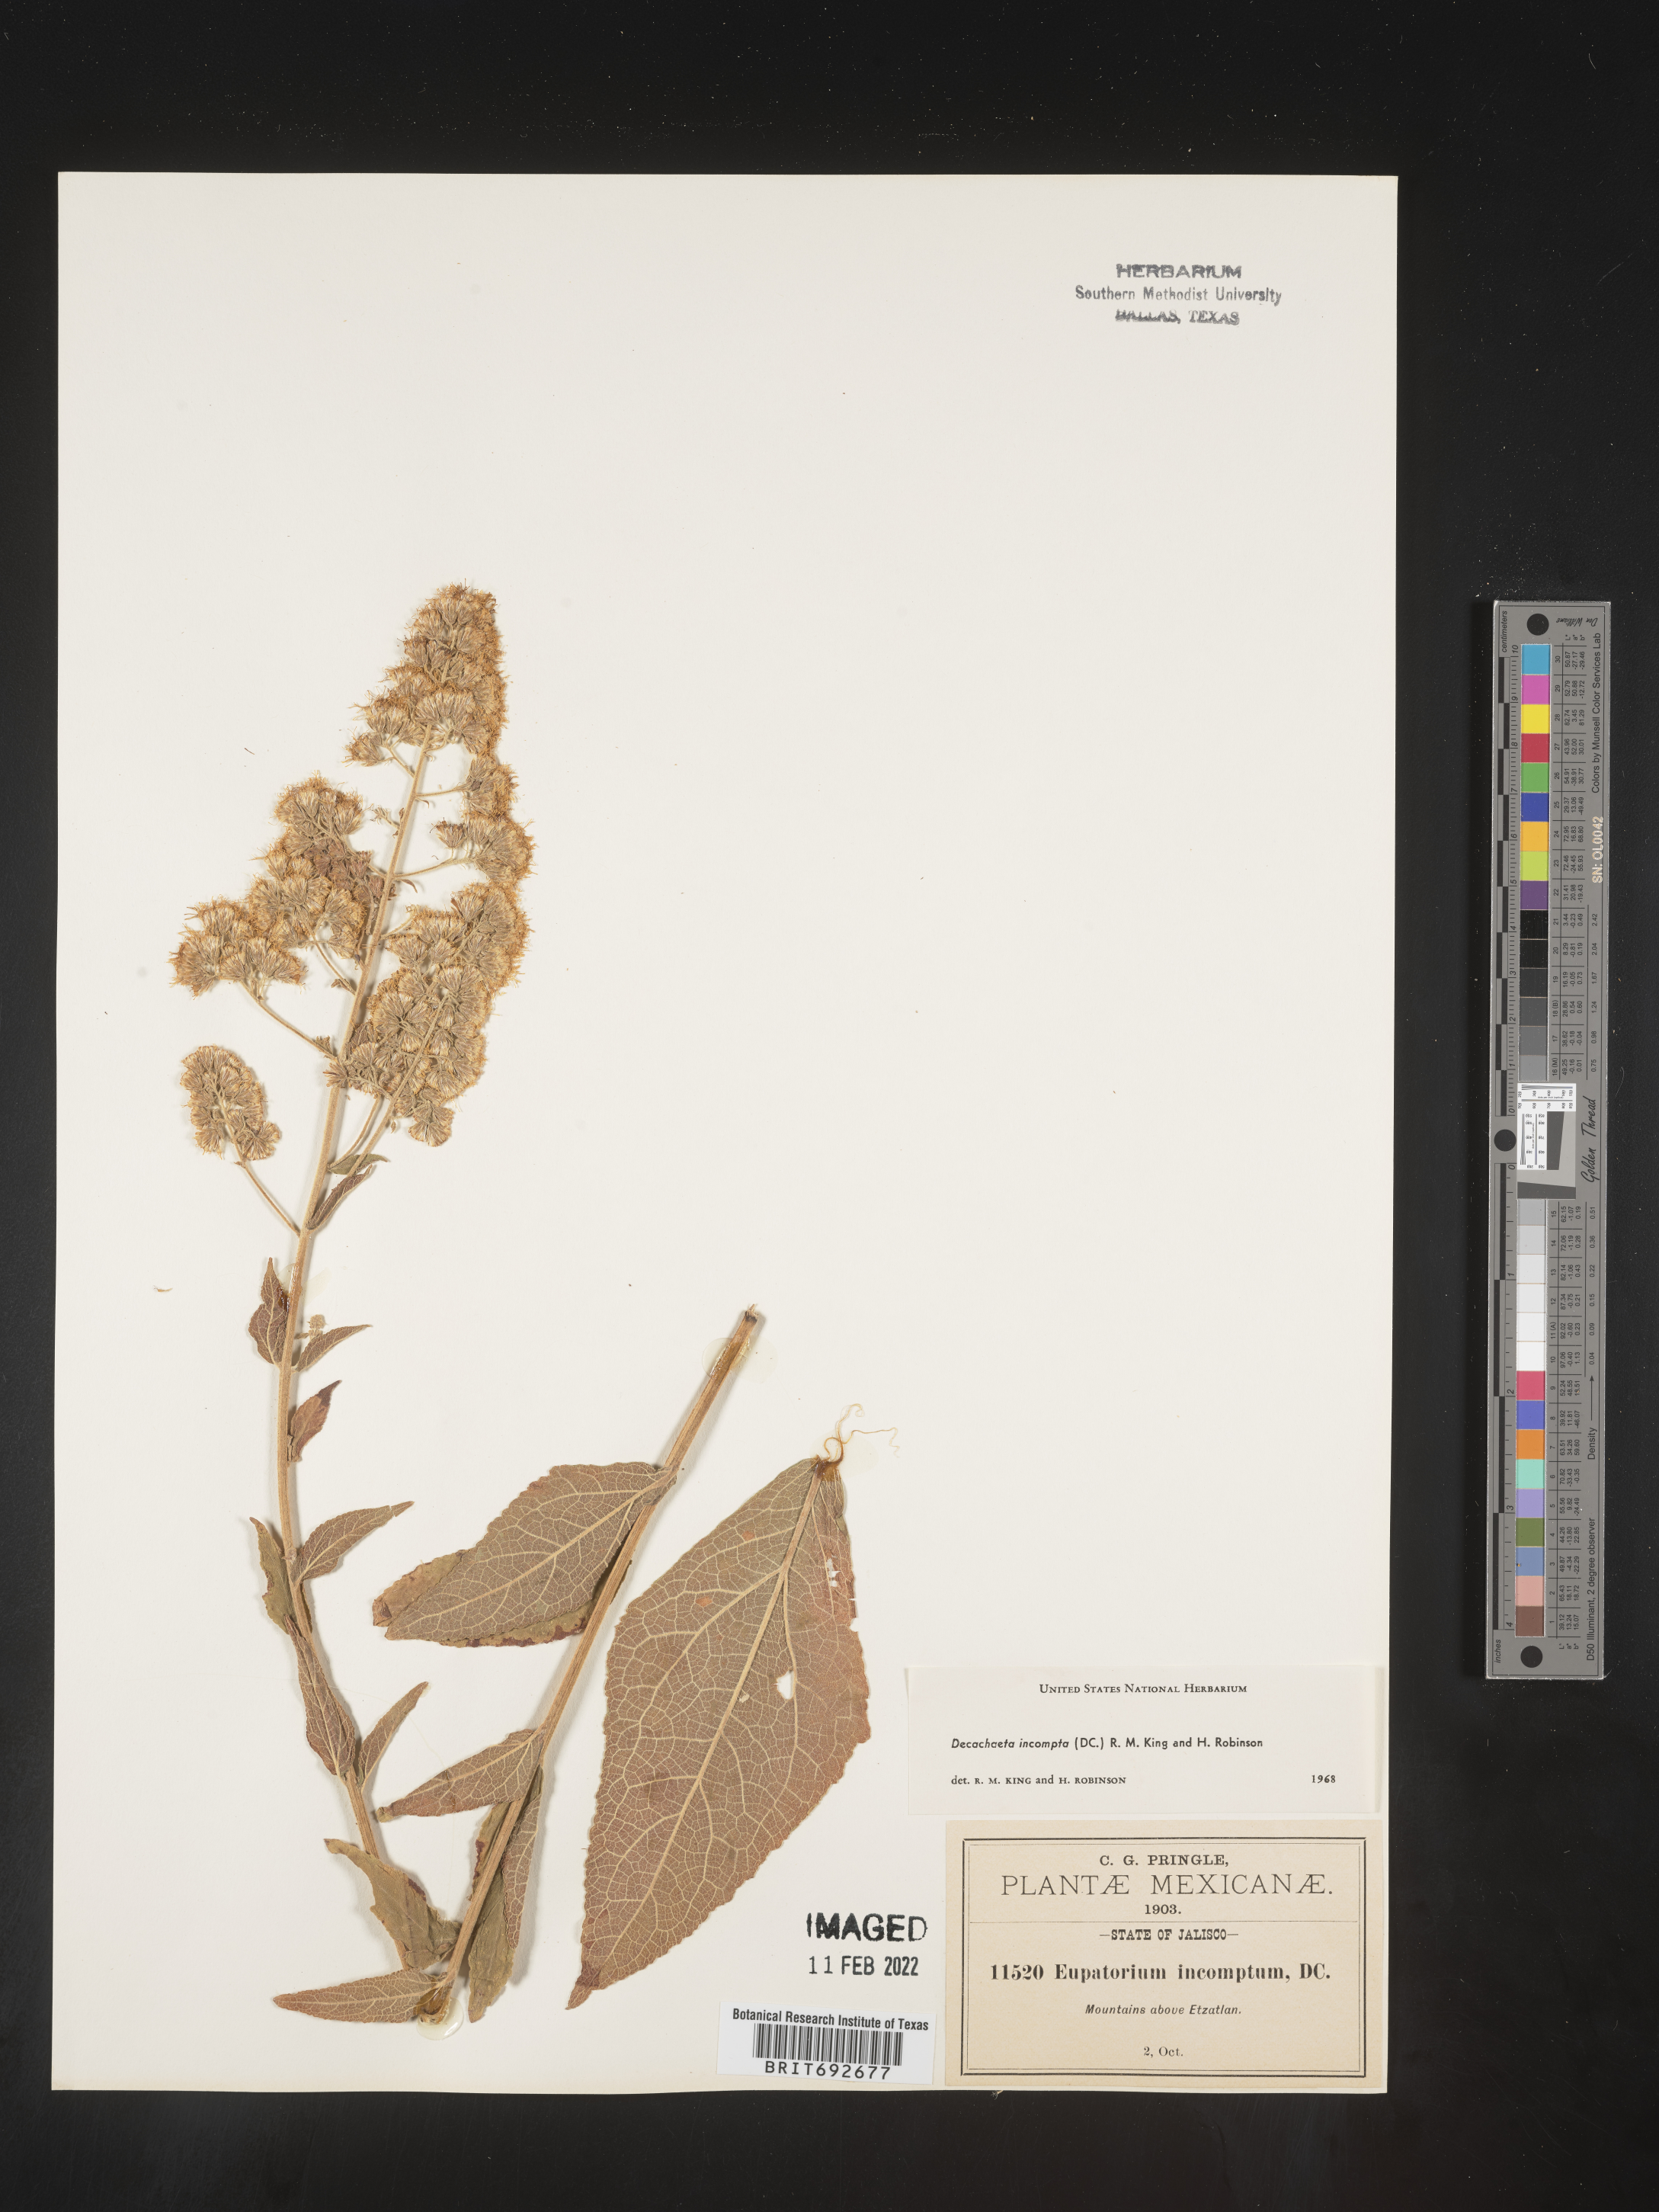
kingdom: Plantae
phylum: Tracheophyta
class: Magnoliopsida
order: Asterales
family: Asteraceae
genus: Decachaeta
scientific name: Decachaeta
